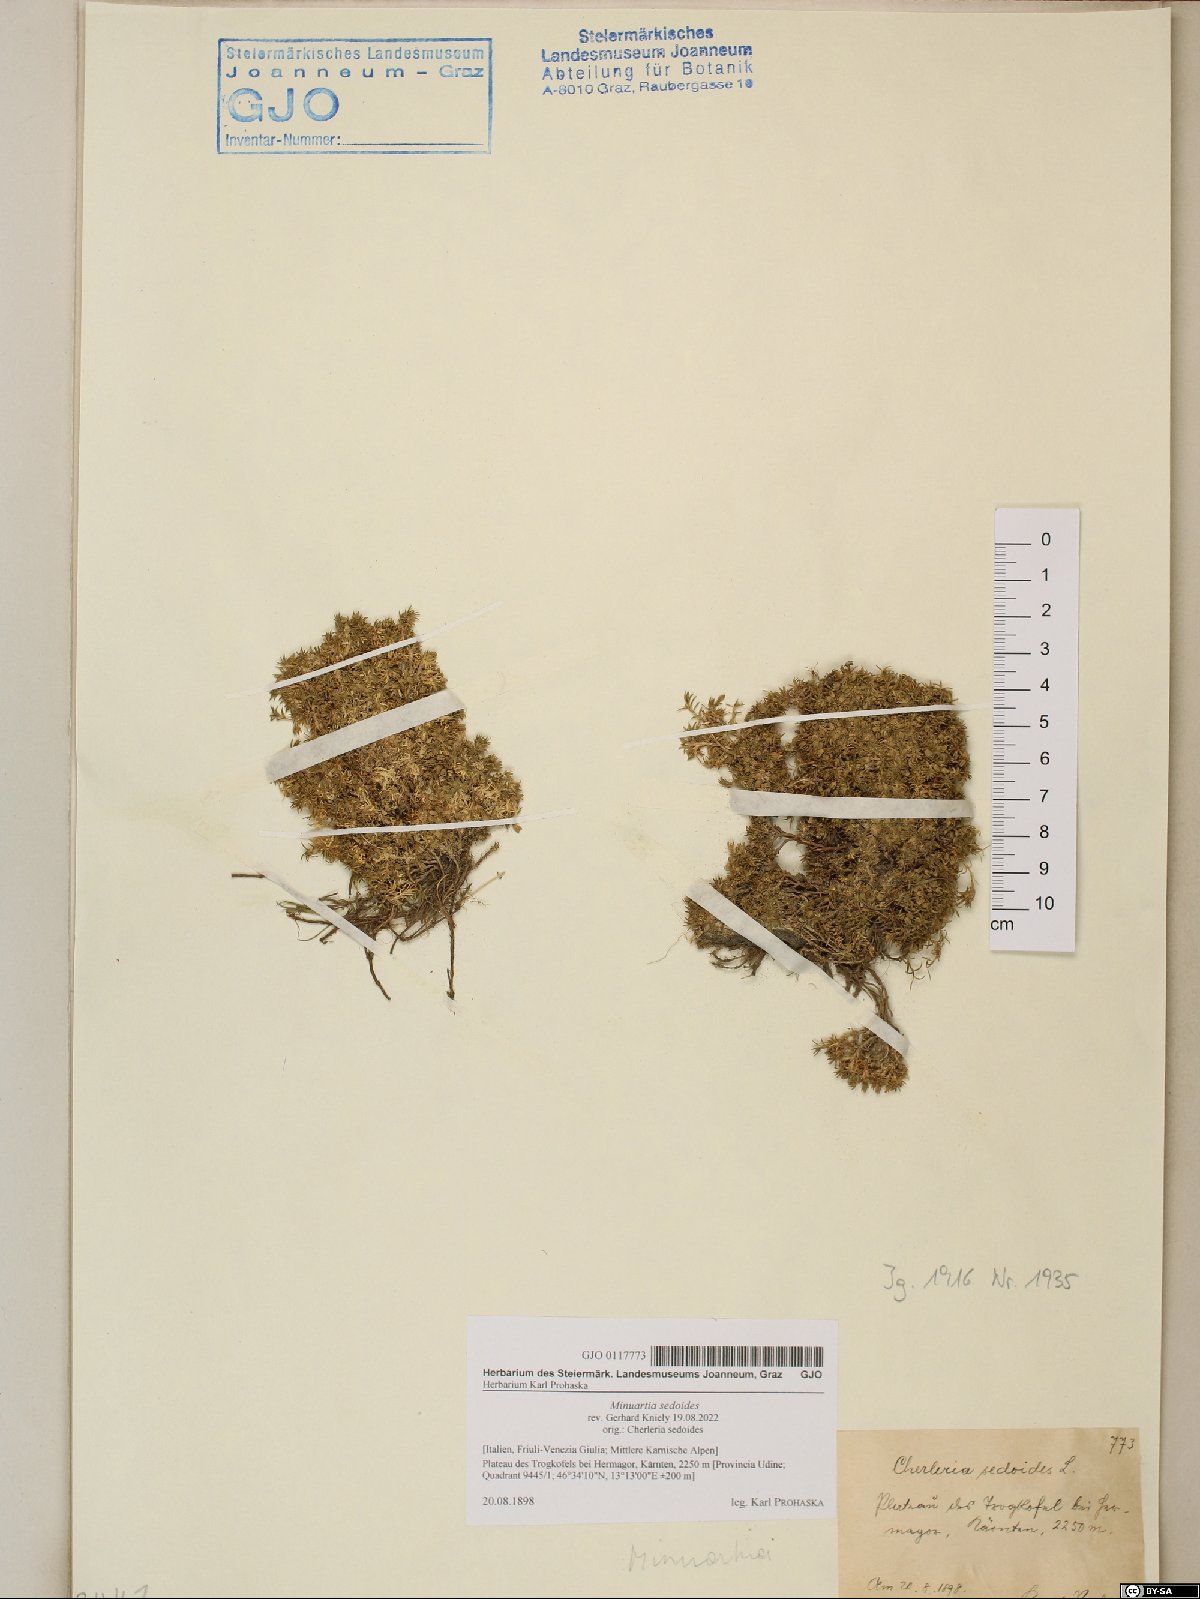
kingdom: Plantae
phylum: Tracheophyta
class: Magnoliopsida
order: Caryophyllales
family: Caryophyllaceae
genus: Cherleria
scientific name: Cherleria sedoides
